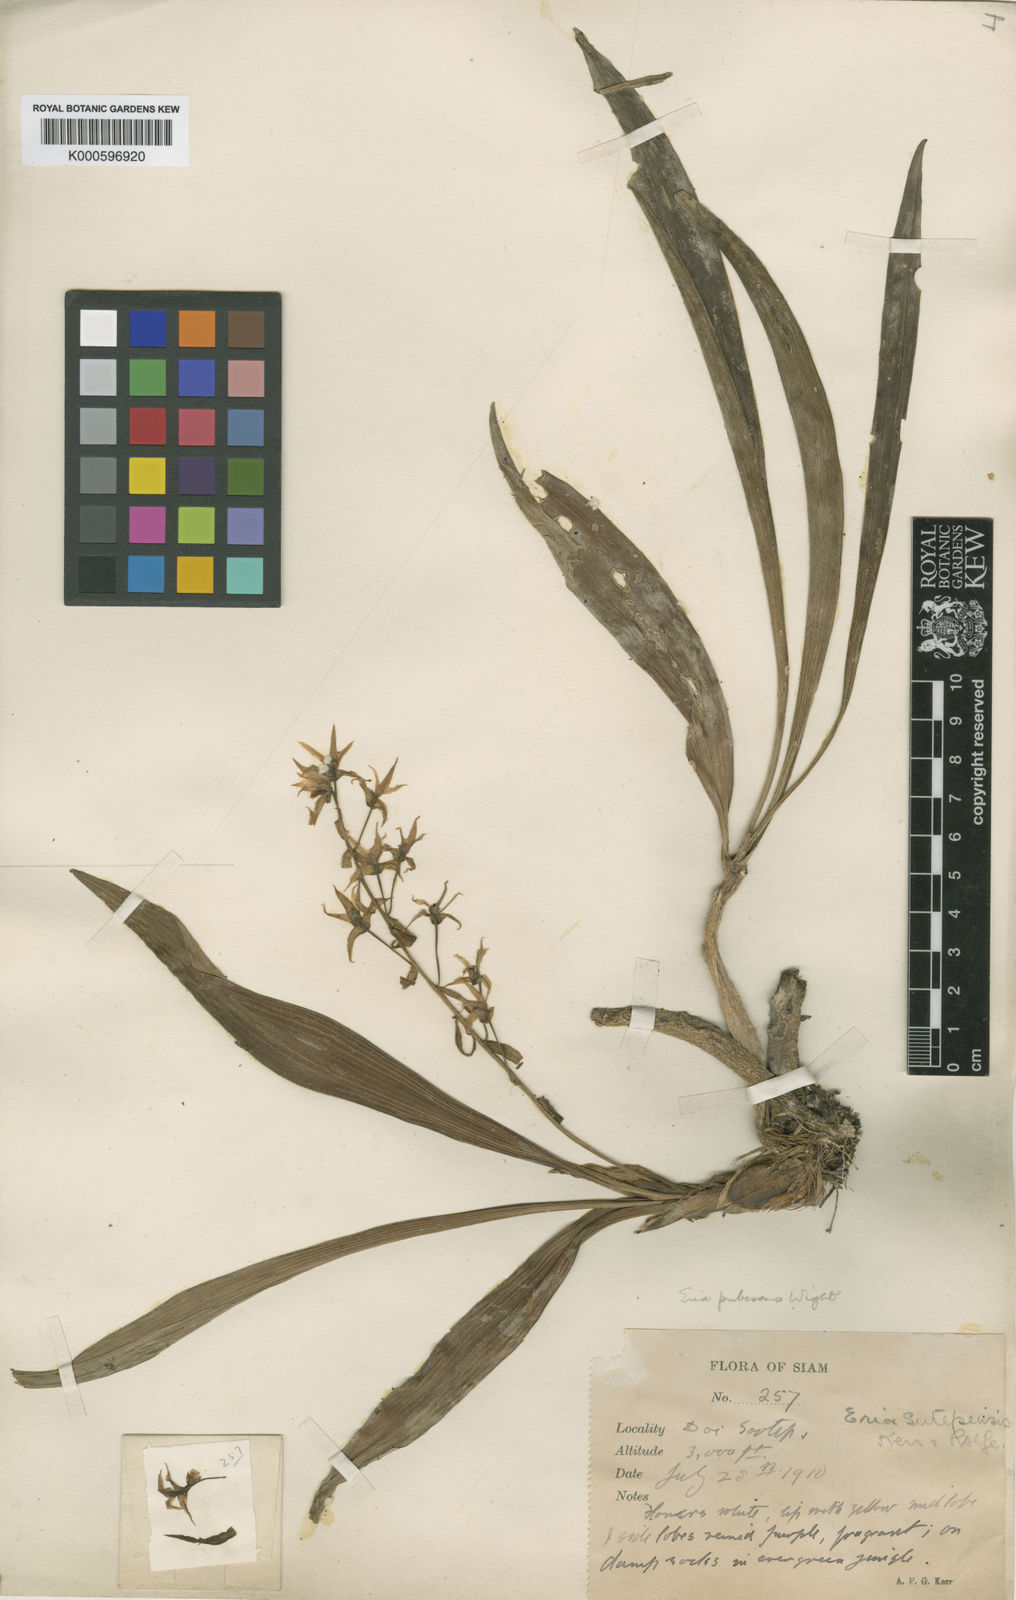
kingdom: Plantae
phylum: Tracheophyta
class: Liliopsida
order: Asparagales
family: Orchidaceae
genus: Pinalia
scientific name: Pinalia sutepensis
